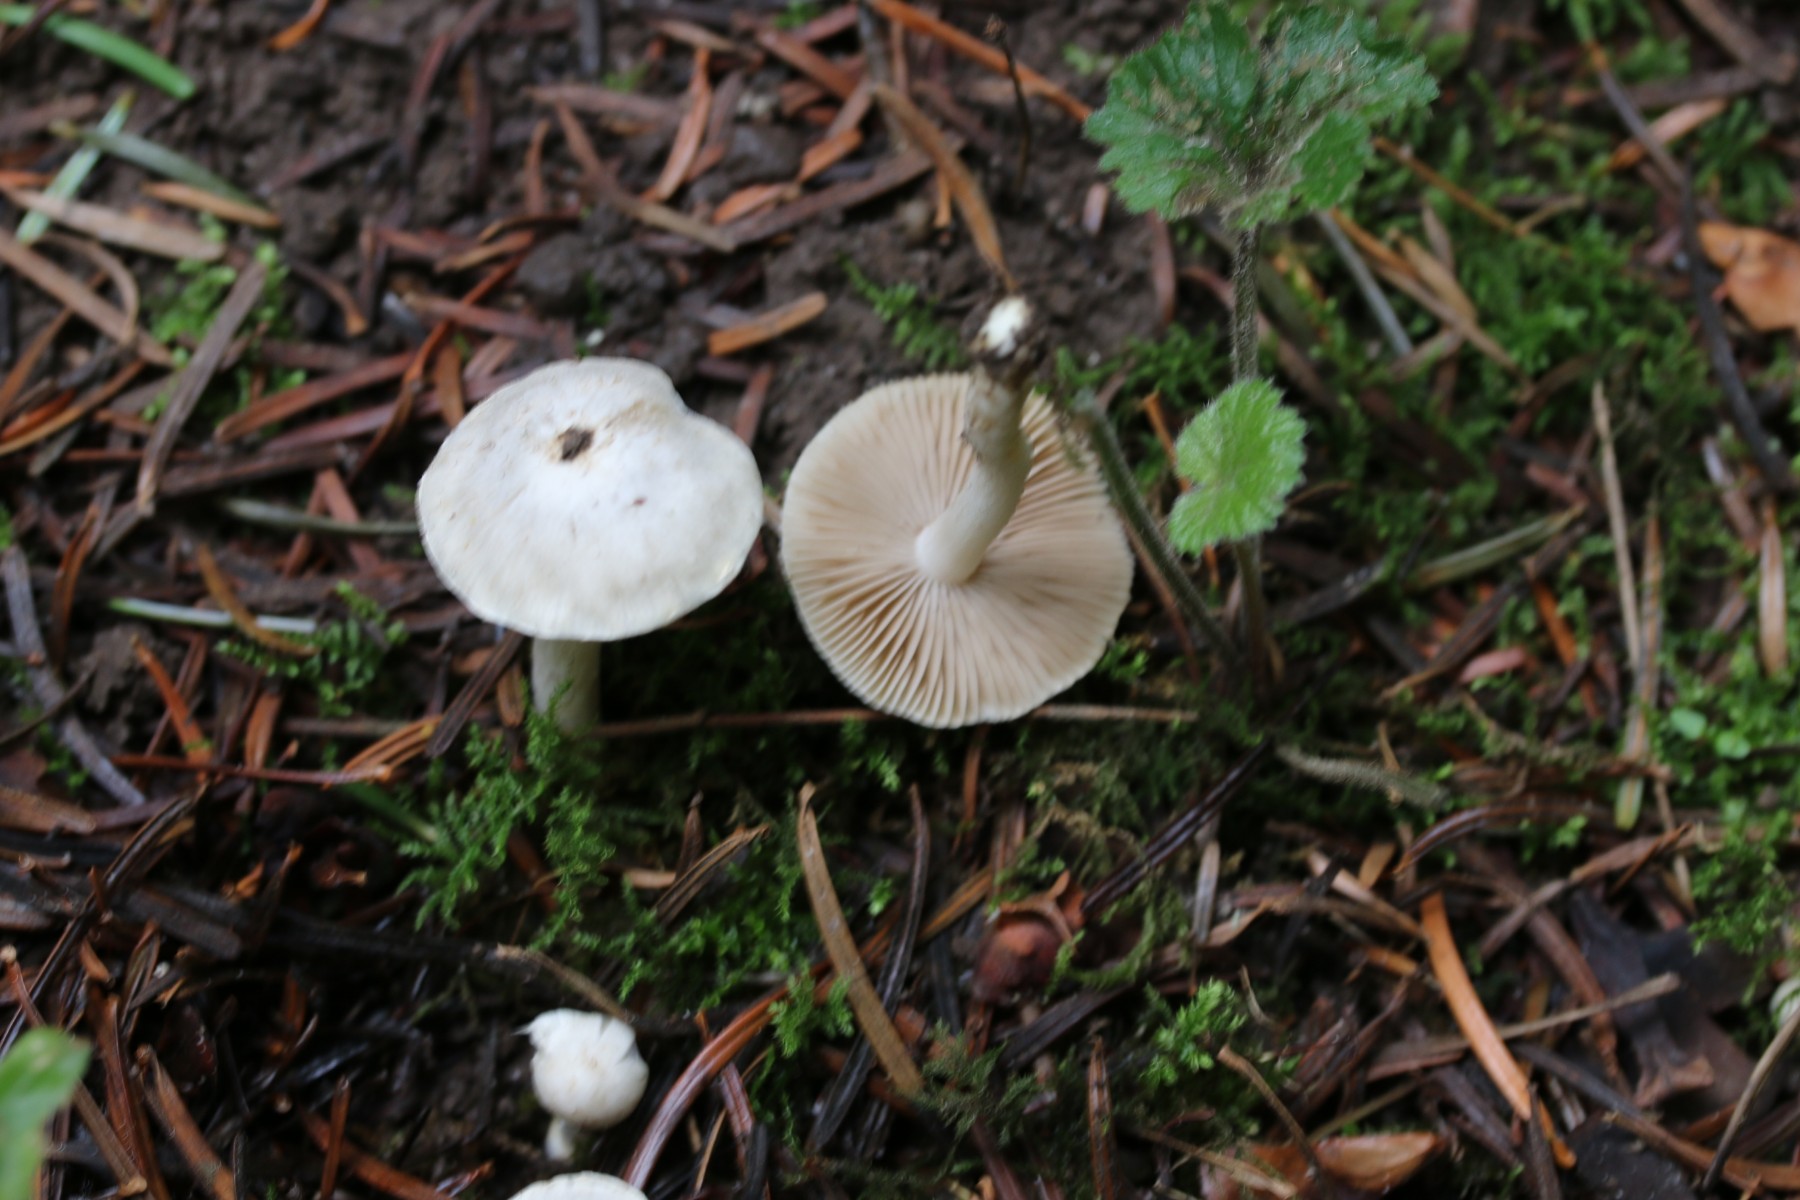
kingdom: Fungi
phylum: Basidiomycota
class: Agaricomycetes
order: Agaricales
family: Inocybaceae
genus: Inocybe
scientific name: Inocybe
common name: almindelig trævlhat
